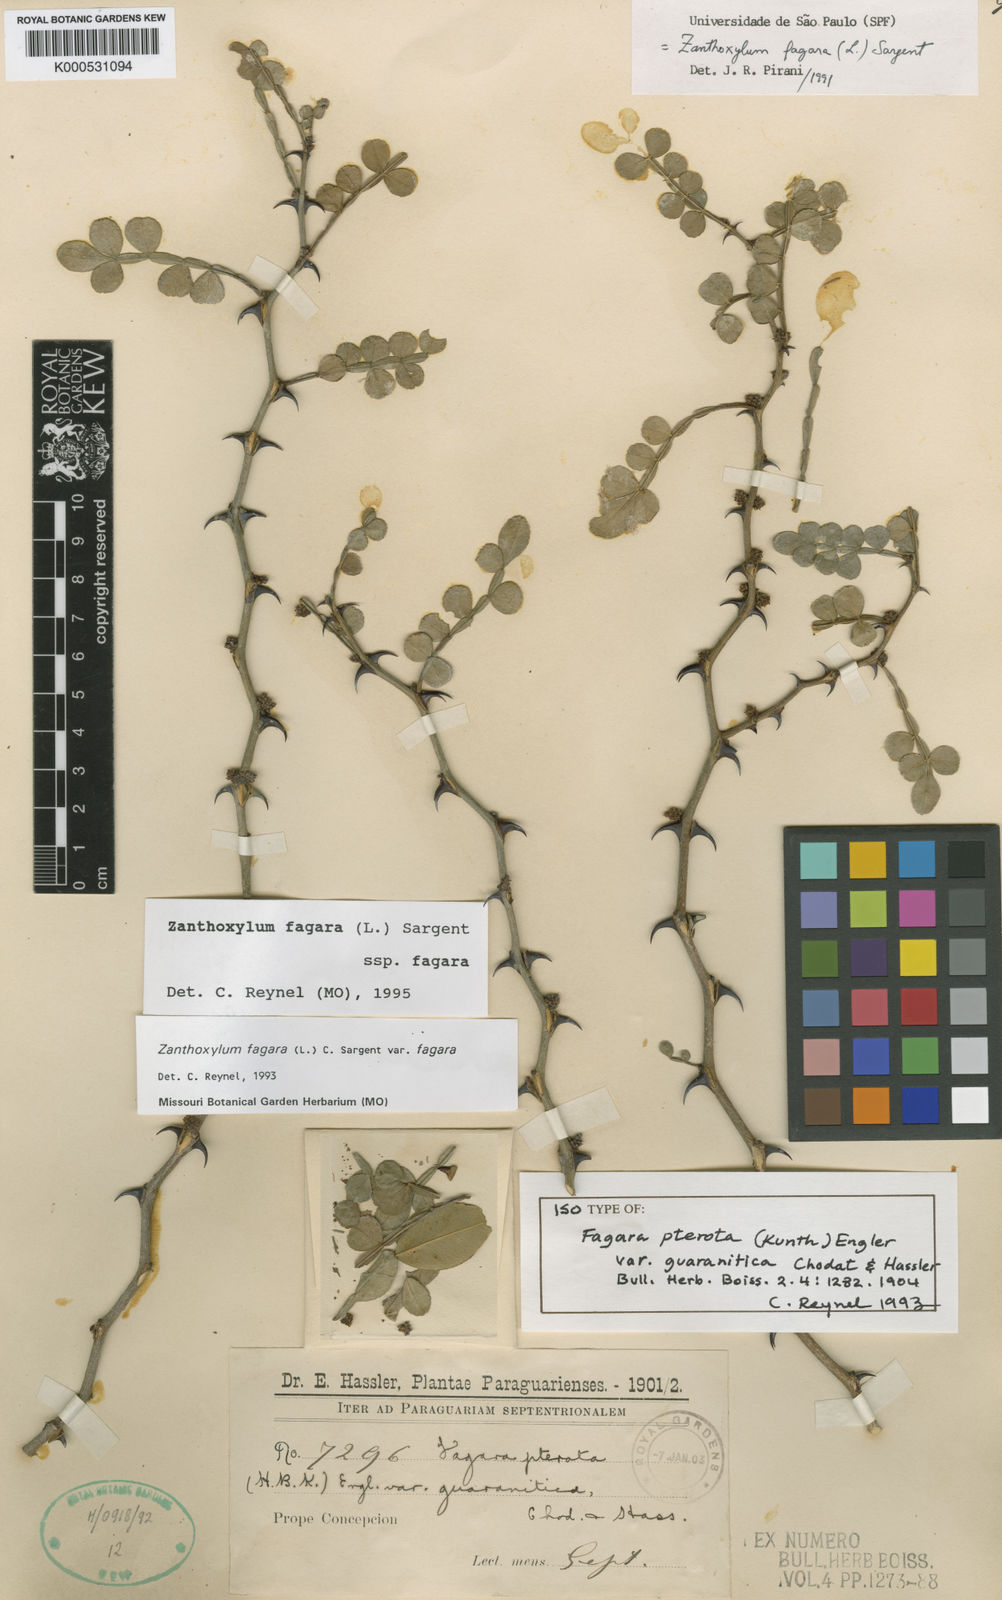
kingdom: Plantae
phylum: Tracheophyta
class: Magnoliopsida
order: Sapindales
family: Rutaceae
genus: Zanthoxylum
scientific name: Zanthoxylum fagara
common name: Lime prickly-ash
